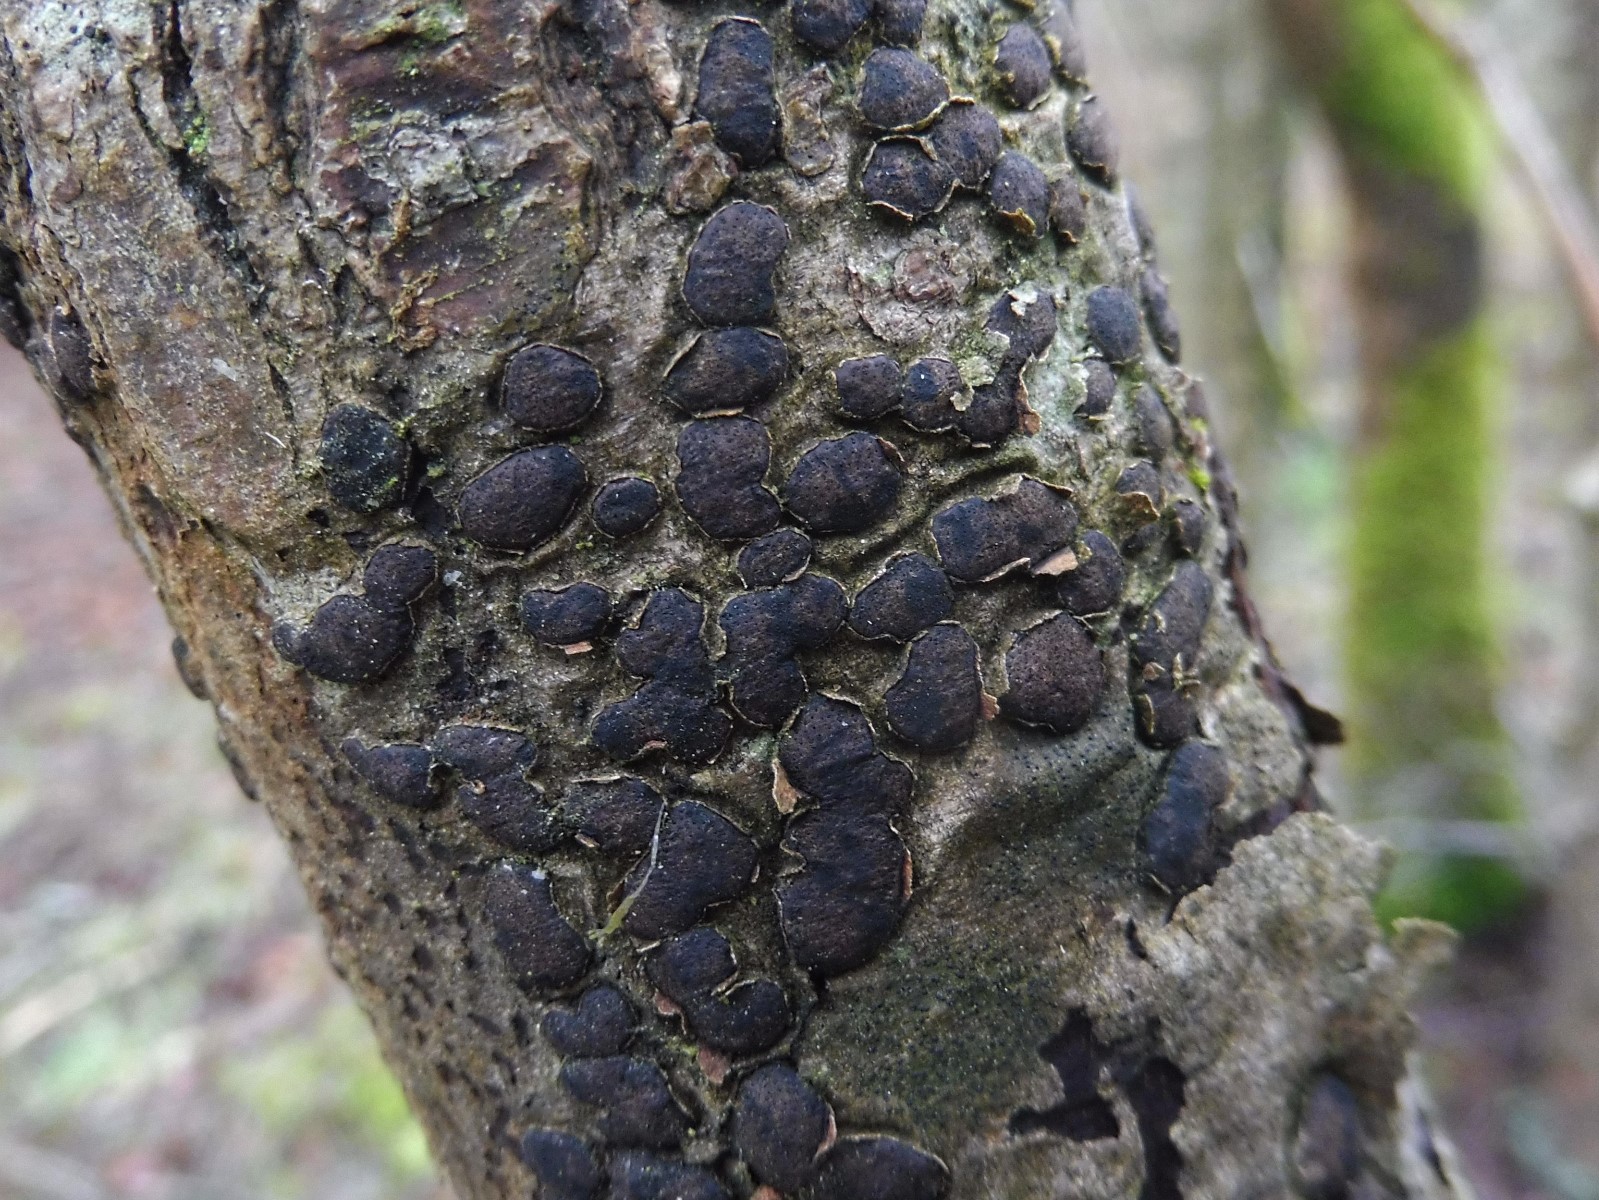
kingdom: Fungi
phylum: Ascomycota
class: Sordariomycetes
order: Xylariales
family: Diatrypaceae
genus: Diatrype
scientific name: Diatrype bullata
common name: pile-kulskorpe
